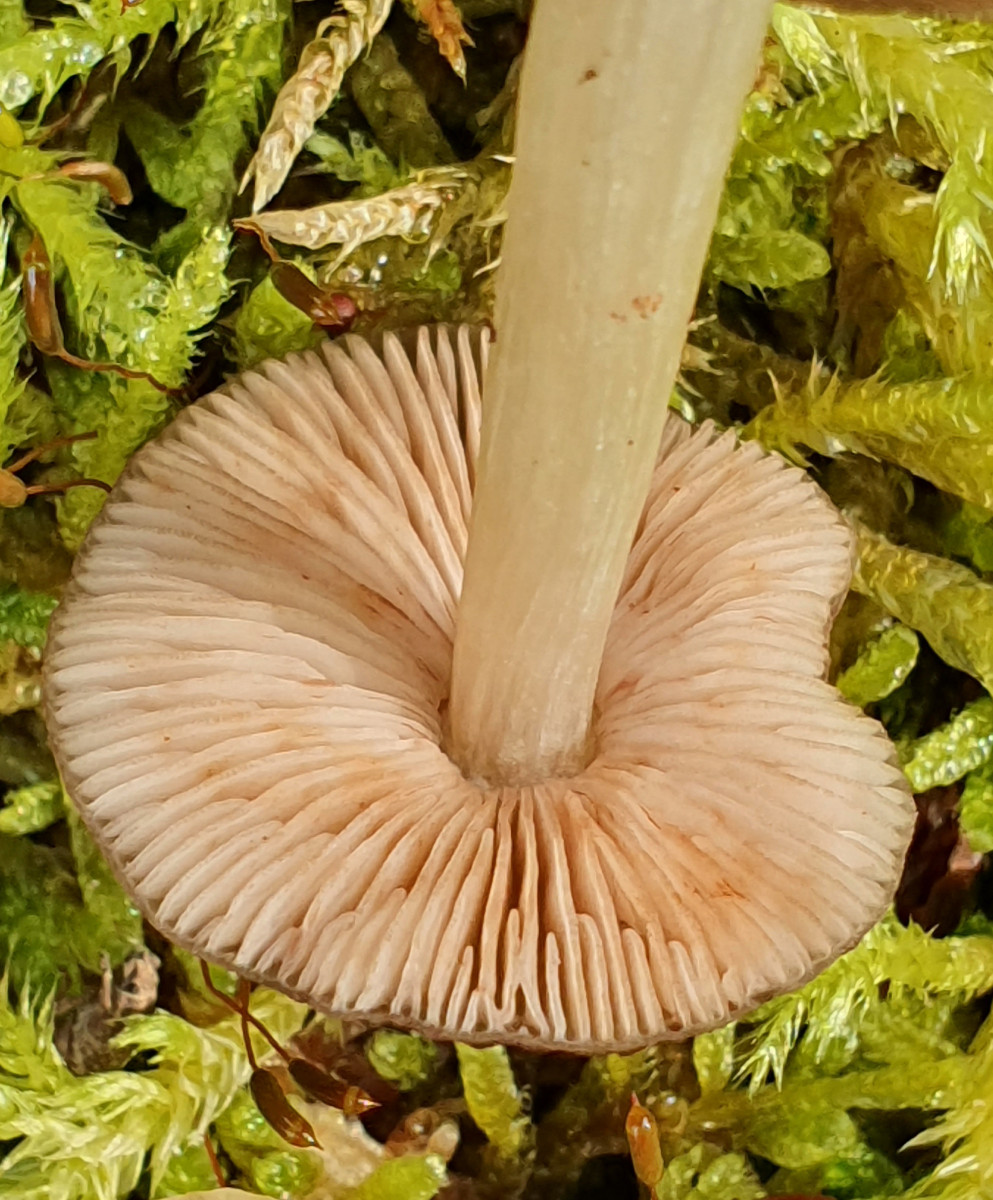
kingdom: Fungi
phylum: Basidiomycota
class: Agaricomycetes
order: Agaricales
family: Pluteaceae
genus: Pluteus
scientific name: Pluteus phlebophorus
